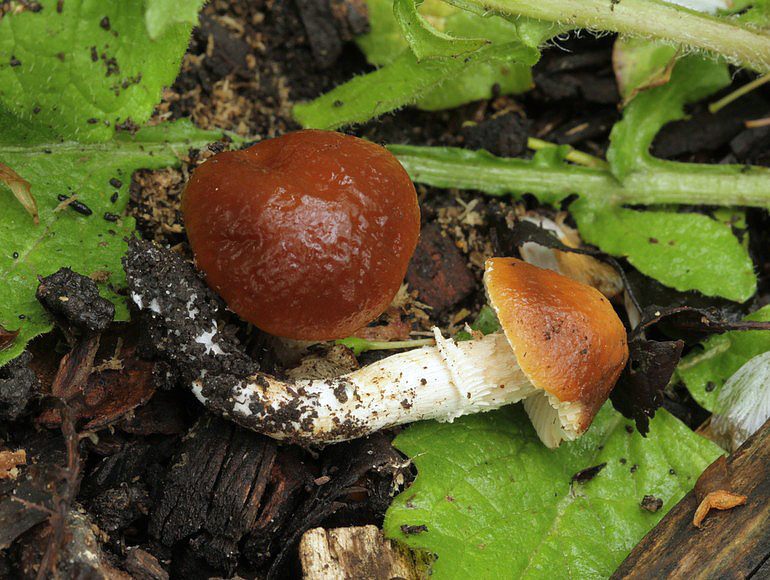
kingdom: Fungi
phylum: Basidiomycota
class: Agaricomycetes
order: Agaricales
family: Bolbitiaceae
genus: Conocybe
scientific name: Conocybe aporos
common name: tidlig dansehat
